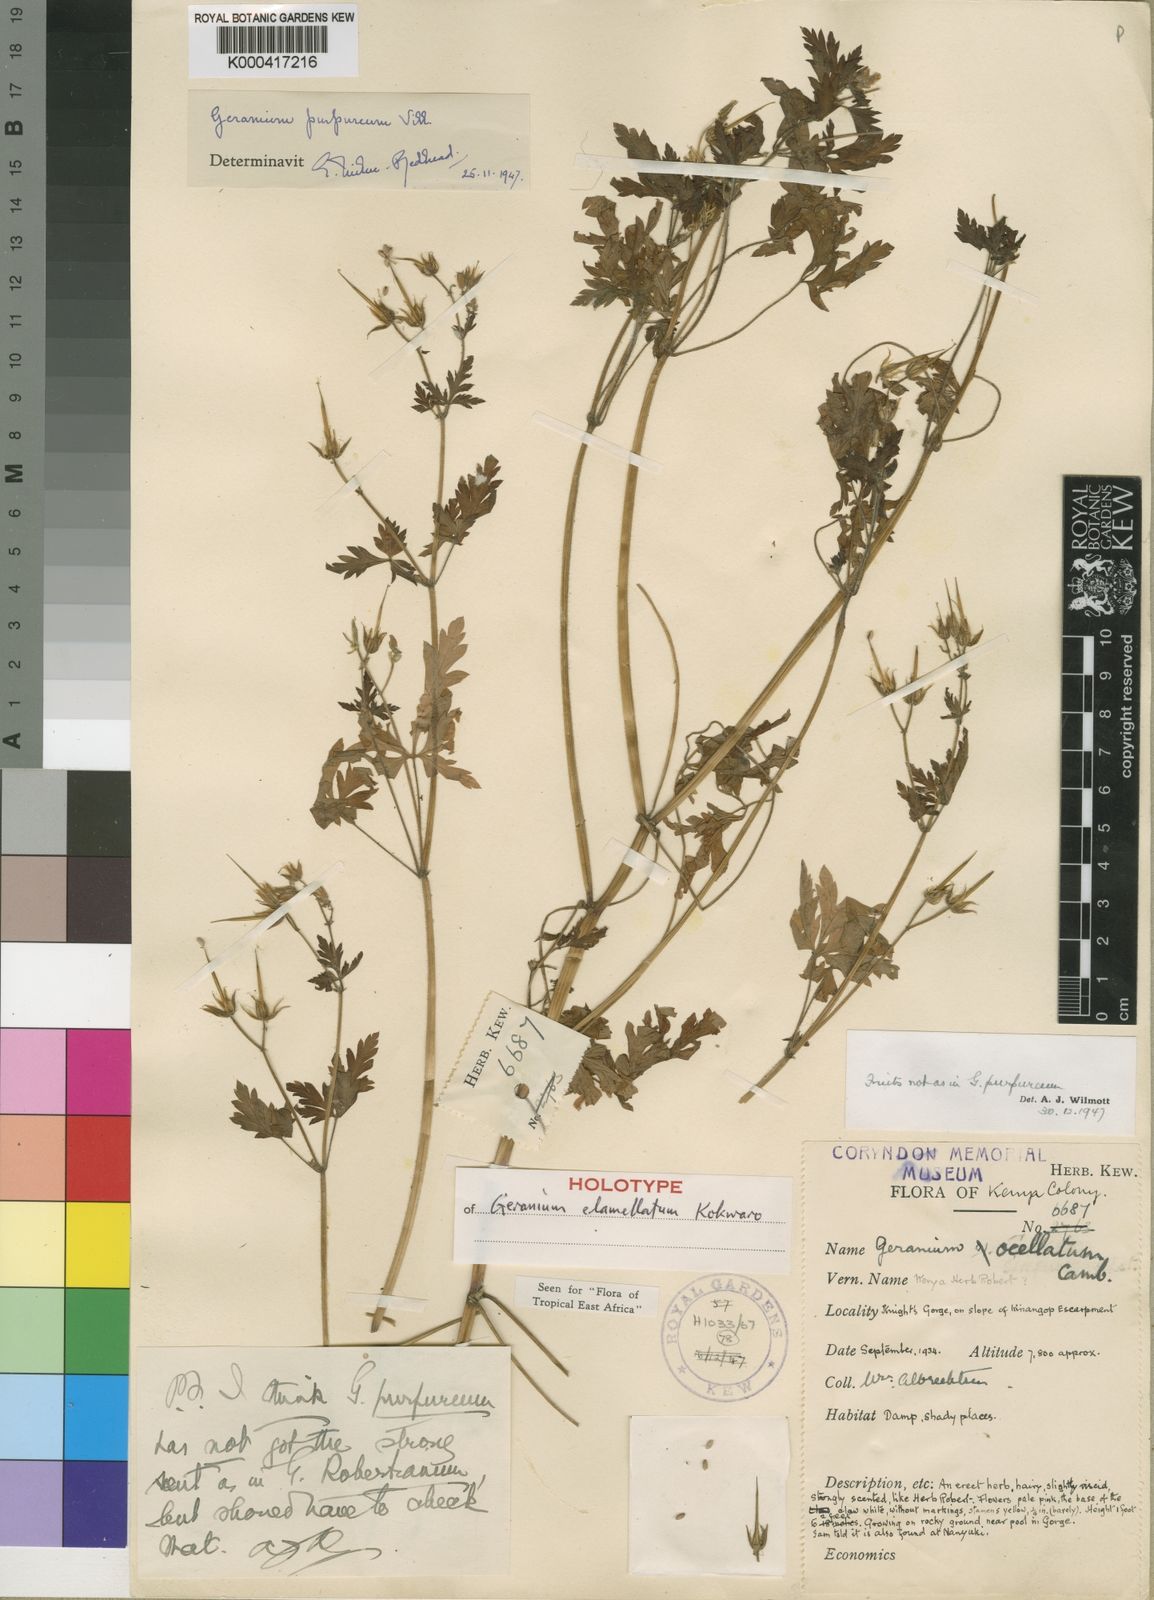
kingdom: Plantae
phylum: Tracheophyta
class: Magnoliopsida
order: Geraniales
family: Geraniaceae
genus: Geranium
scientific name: Geranium purpureum
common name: Little-robin
